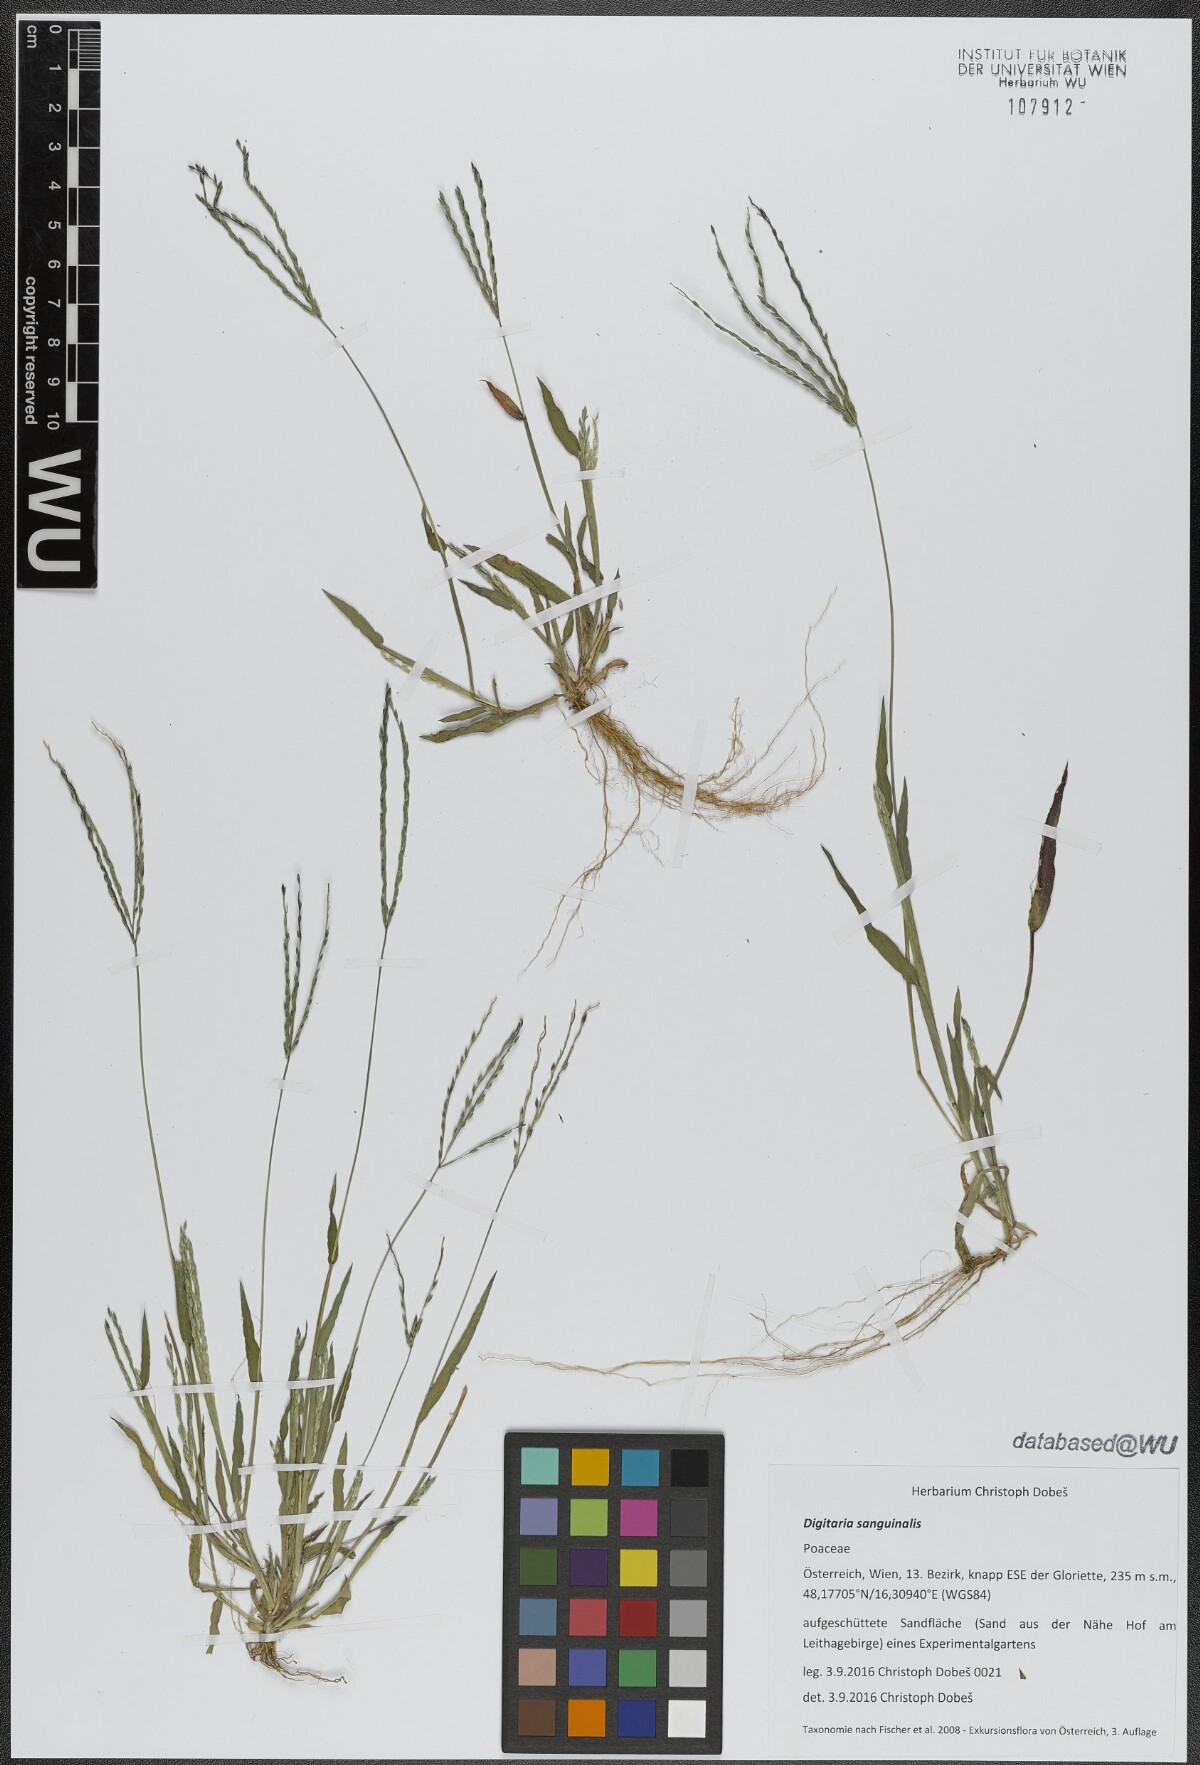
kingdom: Plantae
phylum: Tracheophyta
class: Liliopsida
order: Poales
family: Poaceae
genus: Digitaria
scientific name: Digitaria sanguinalis
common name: Hairy crabgrass
